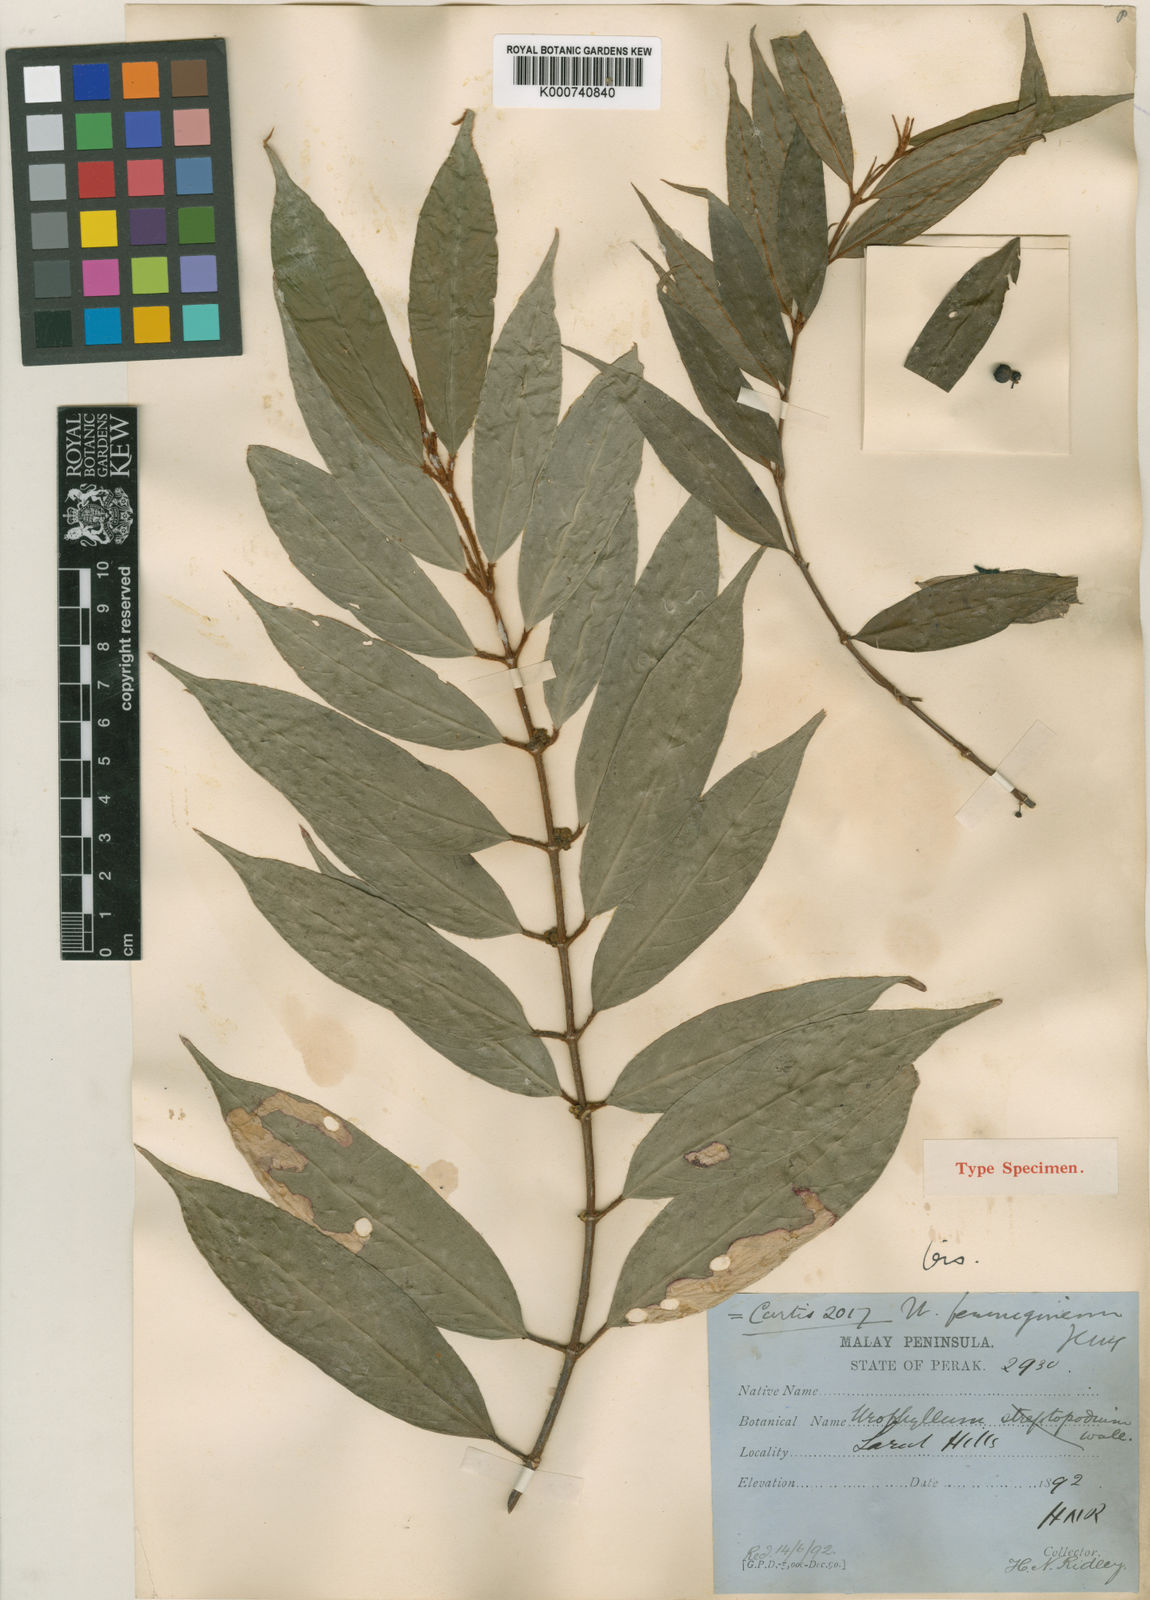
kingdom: Plantae
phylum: Tracheophyta
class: Magnoliopsida
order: Gentianales
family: Rubiaceae
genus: Urophyllum
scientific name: Urophyllum ferrugineum
